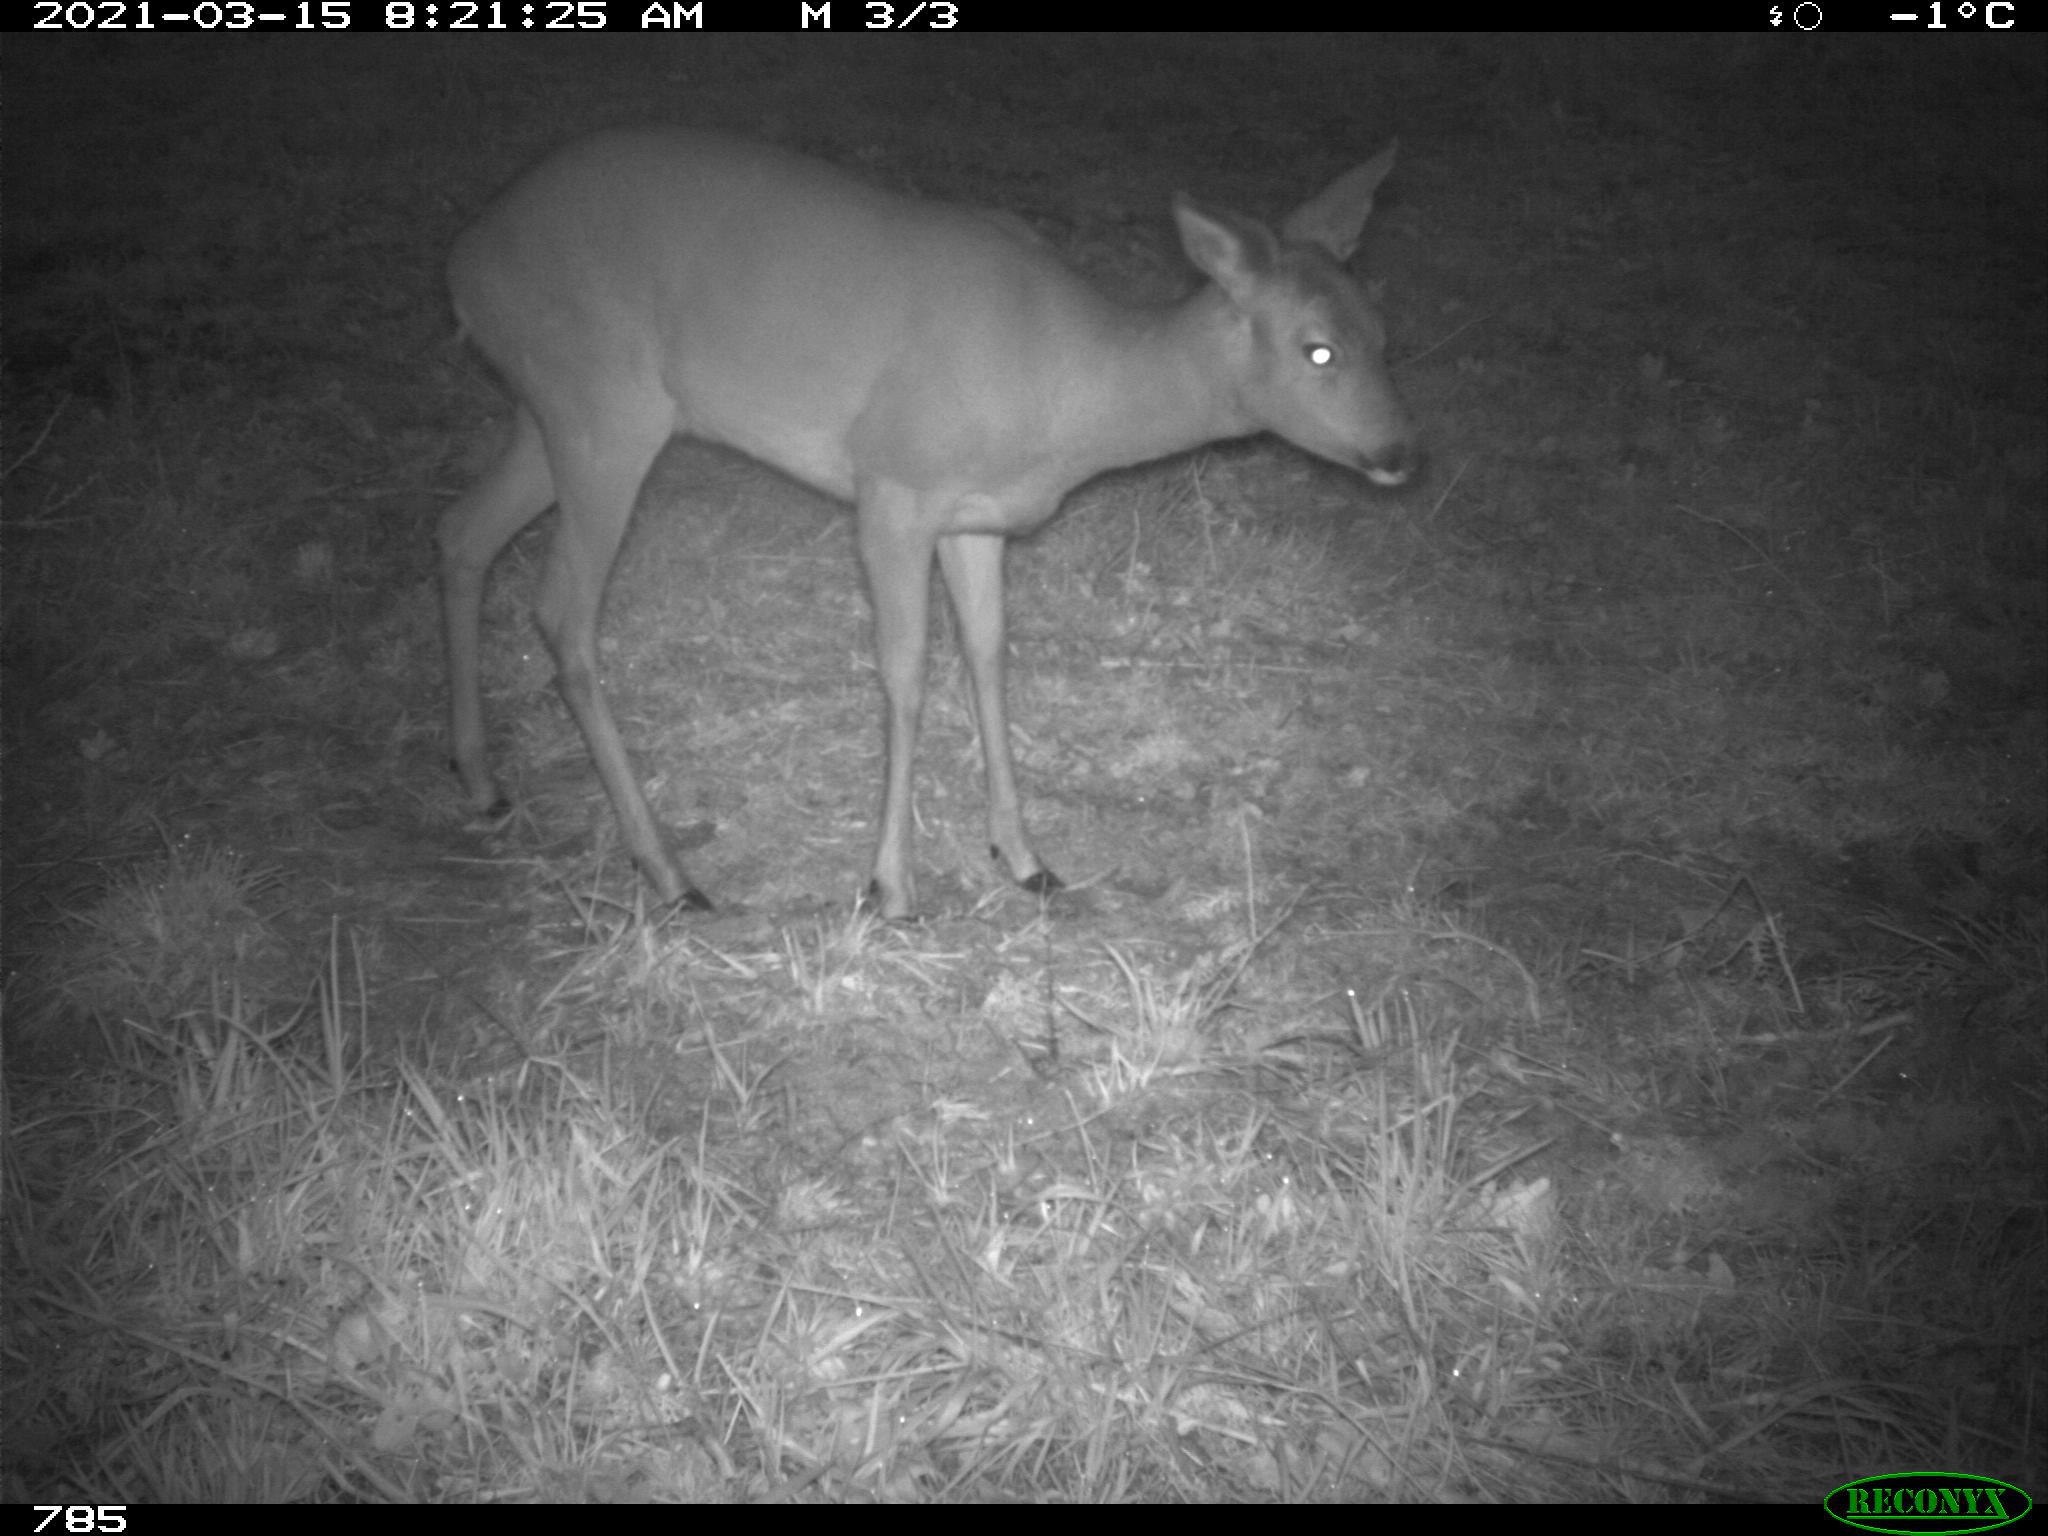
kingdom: Animalia
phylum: Chordata
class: Mammalia
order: Artiodactyla
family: Cervidae
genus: Capreolus
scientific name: Capreolus capreolus
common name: Western roe deer
